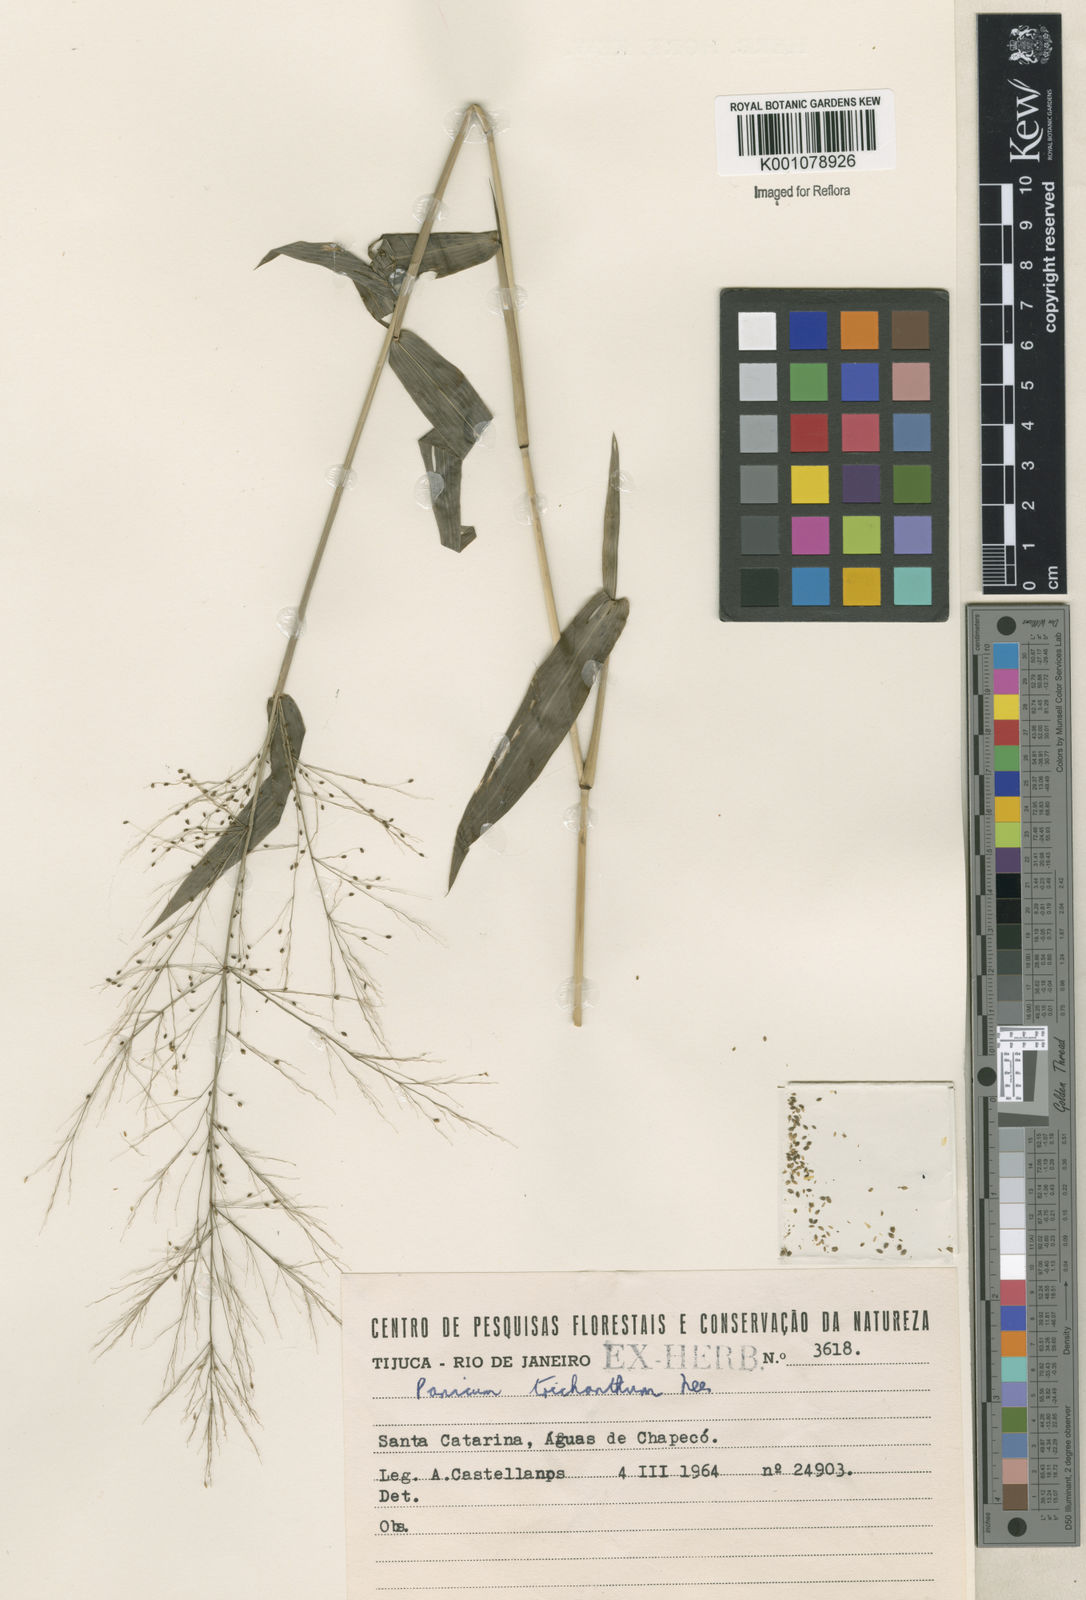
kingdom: Plantae
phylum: Tracheophyta
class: Liliopsida
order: Poales
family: Poaceae
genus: Panicum
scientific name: Panicum
